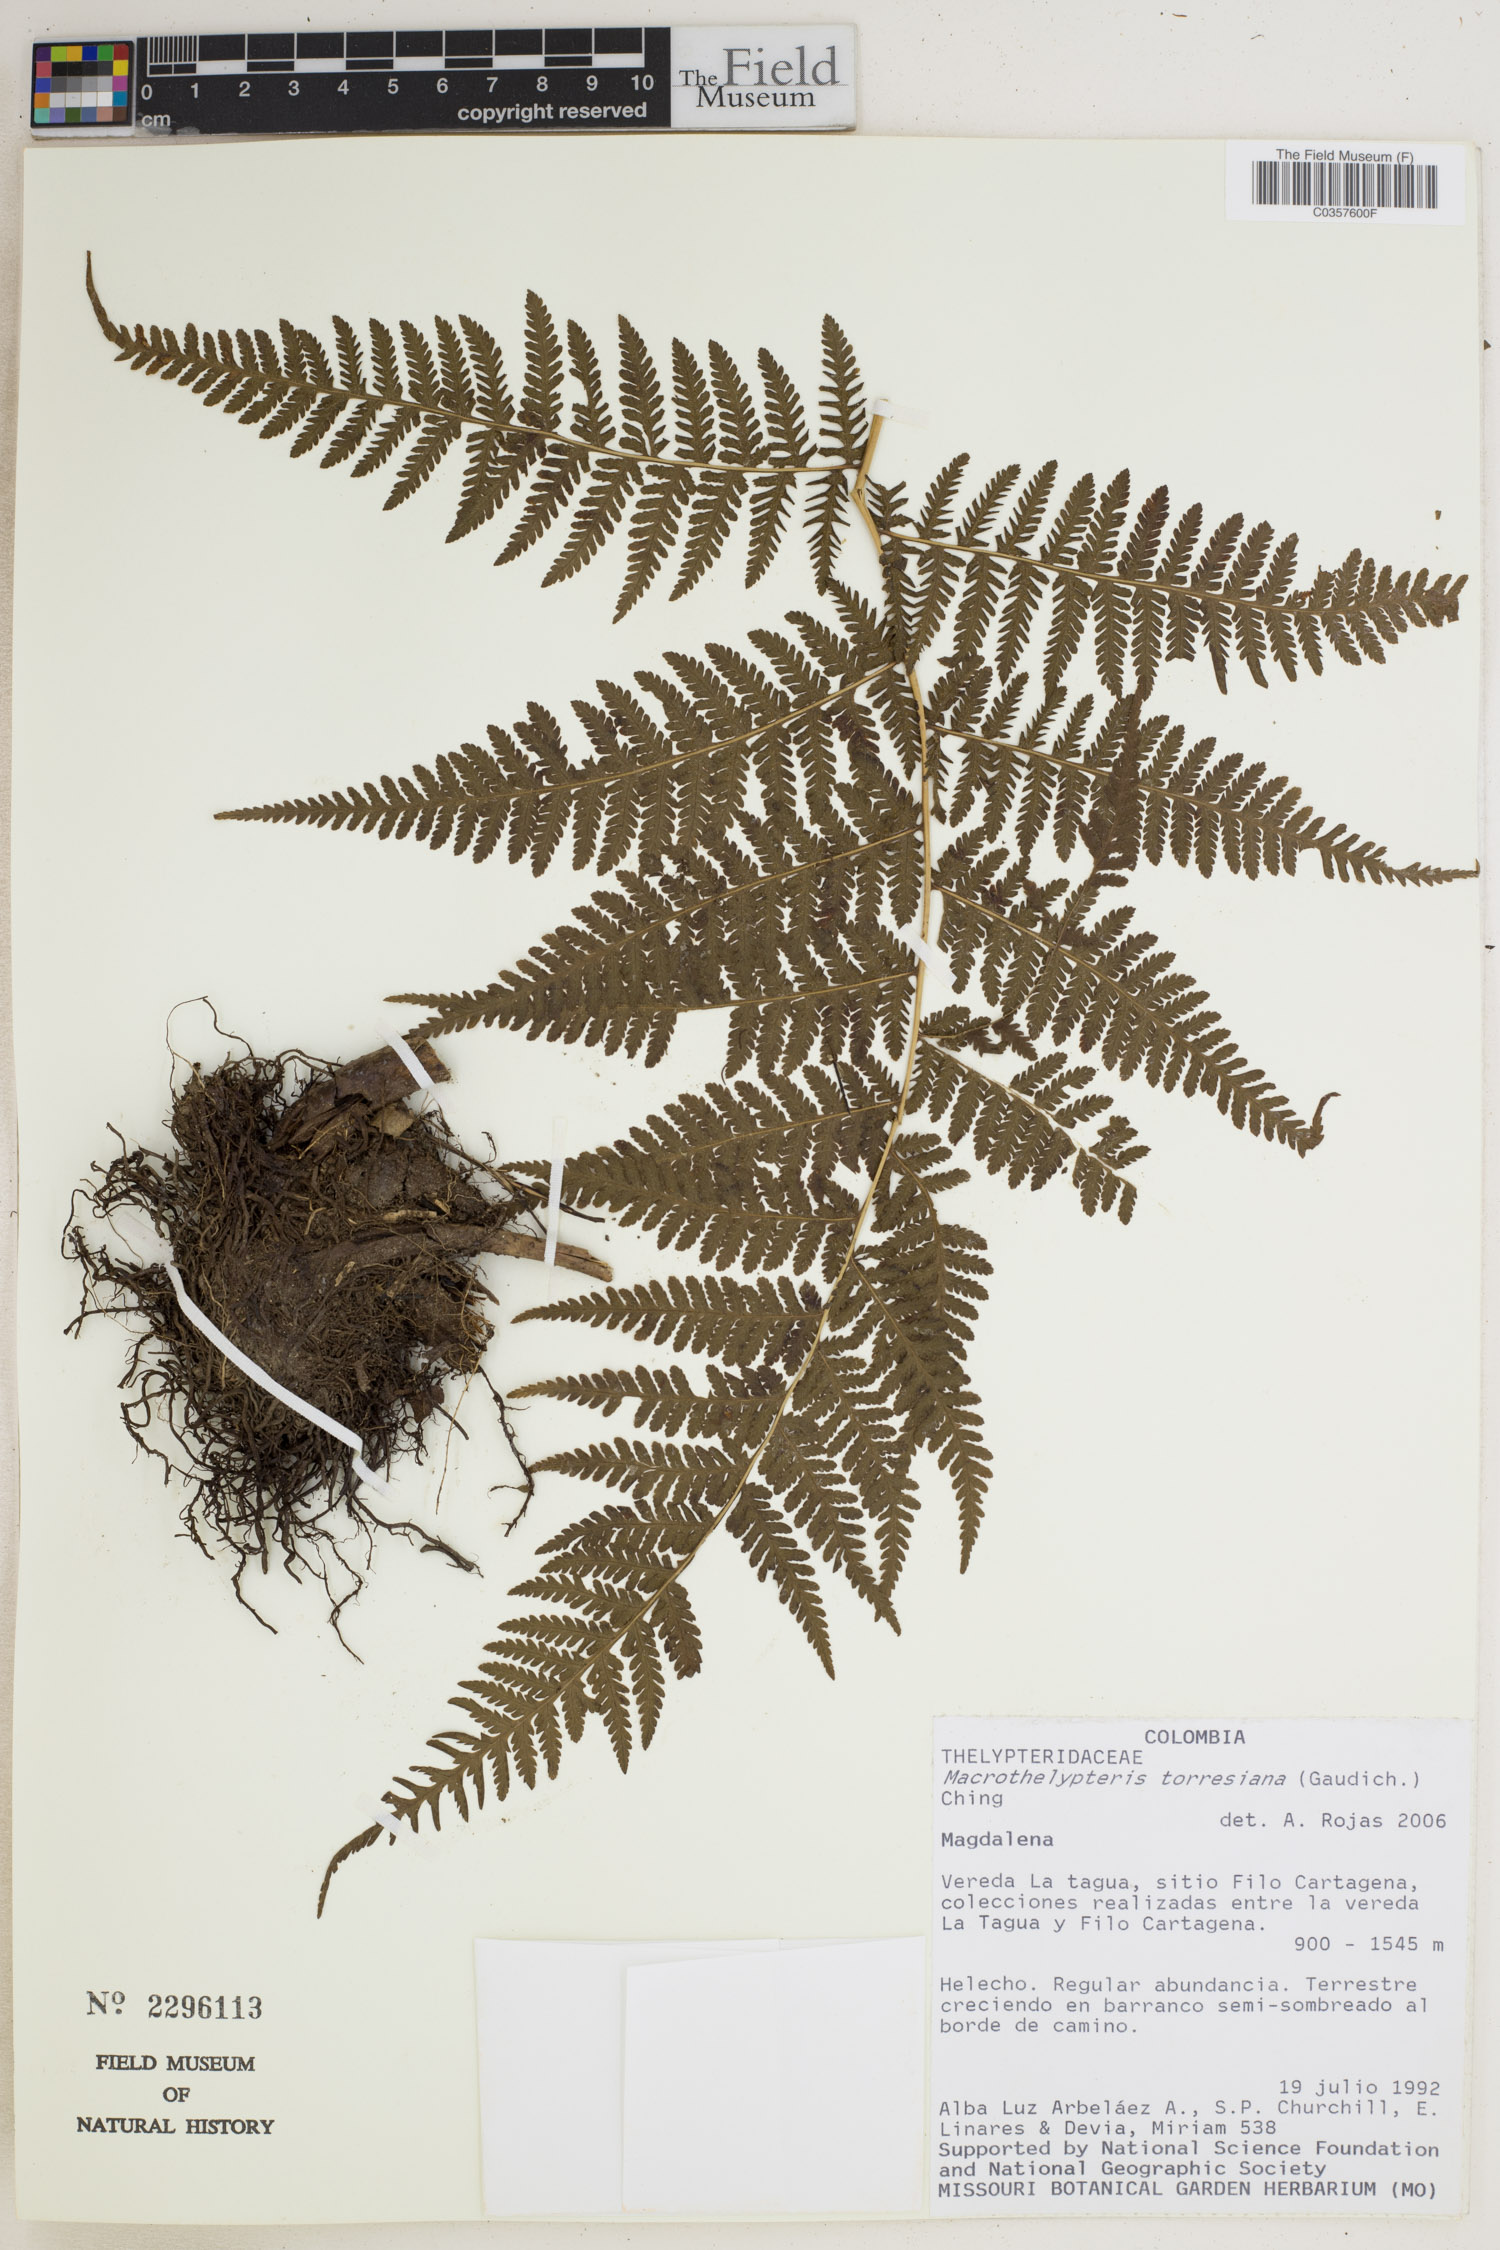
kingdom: Plantae
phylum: Tracheophyta
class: Polypodiopsida
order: Polypodiales
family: Thelypteridaceae
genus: Macrothelypteris
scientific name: Macrothelypteris torresiana
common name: Swordfern
